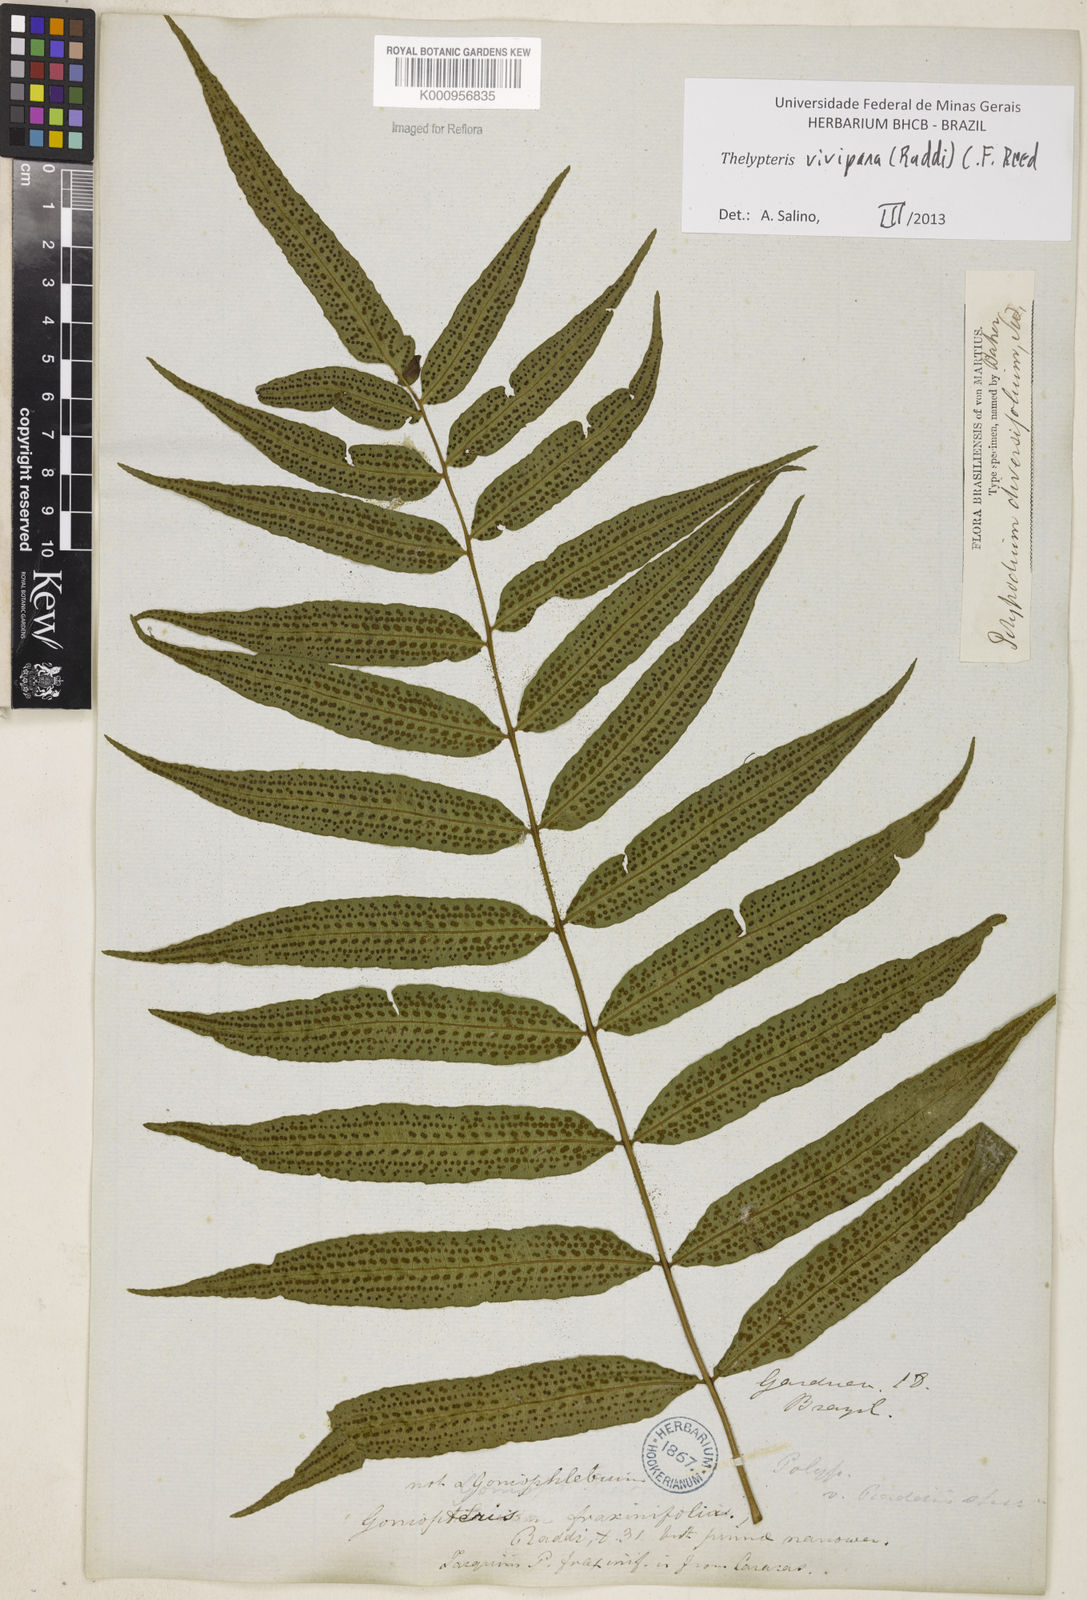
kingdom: Plantae
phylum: Tracheophyta
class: Polypodiopsida
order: Polypodiales
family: Thelypteridaceae
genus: Goniopteris
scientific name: Goniopteris vivipara
